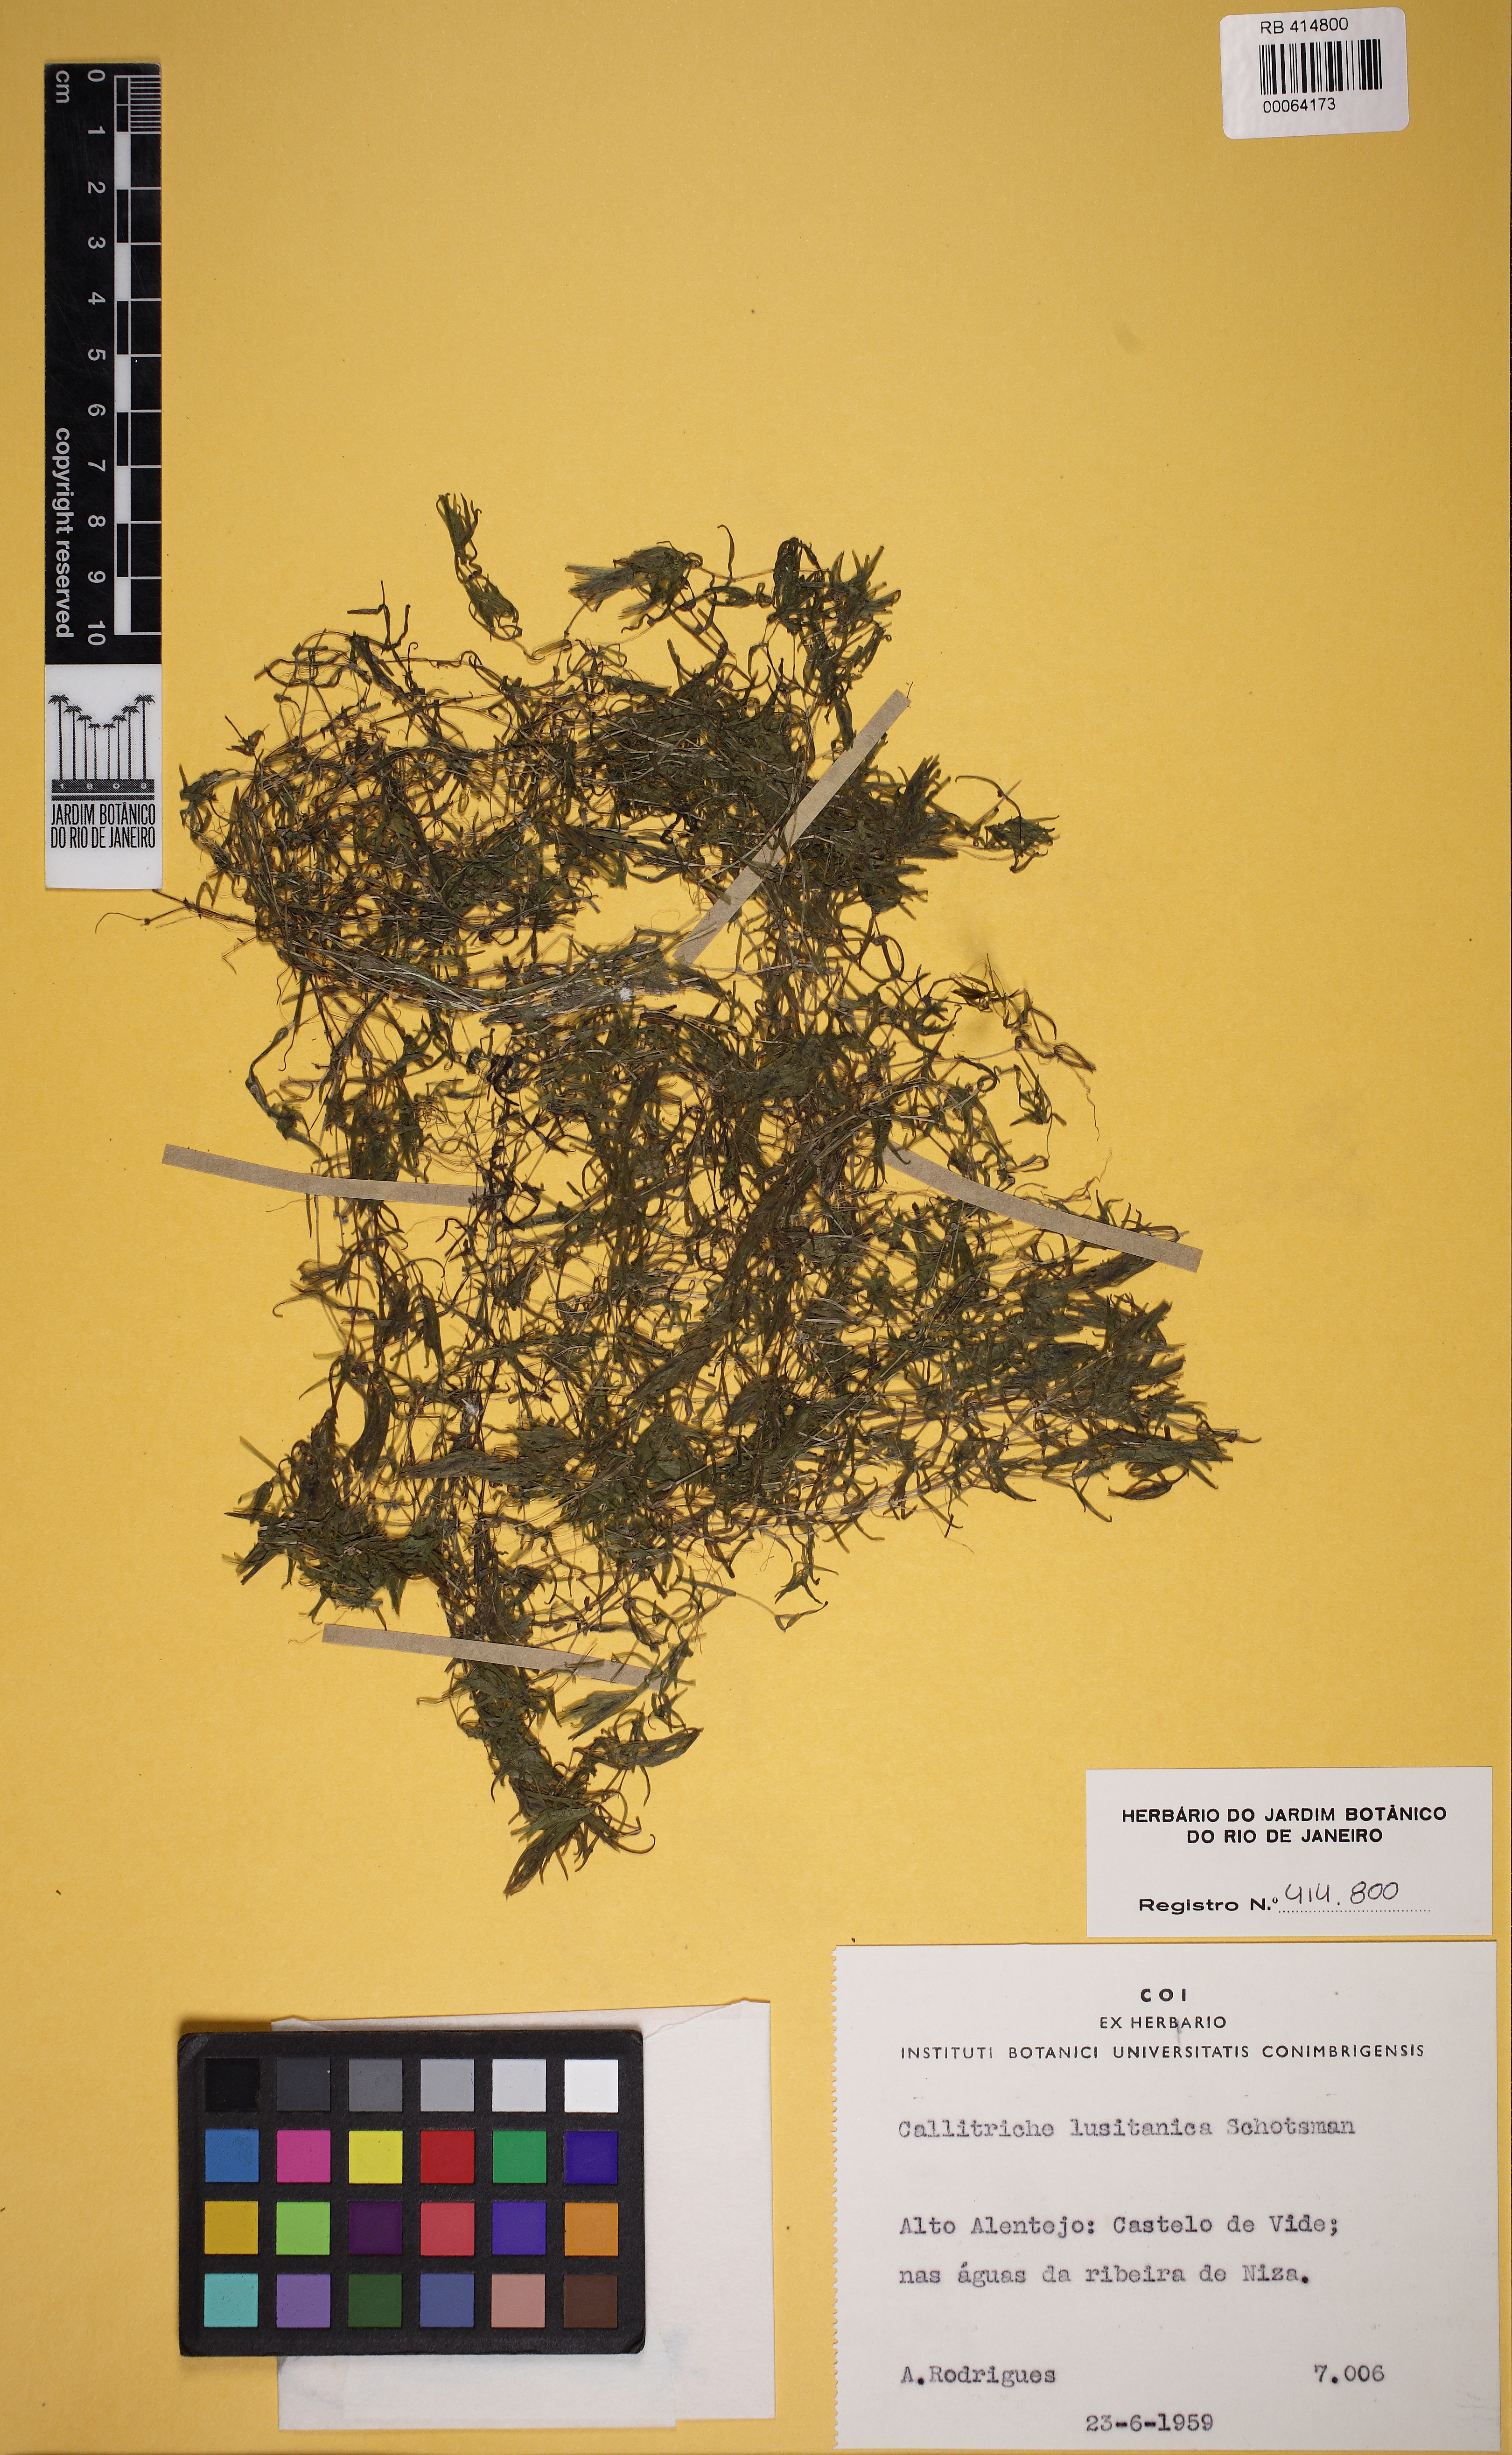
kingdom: Plantae
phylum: Tracheophyta
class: Magnoliopsida
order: Lamiales
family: Plantaginaceae
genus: Callitriche
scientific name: Callitriche lusitanica
